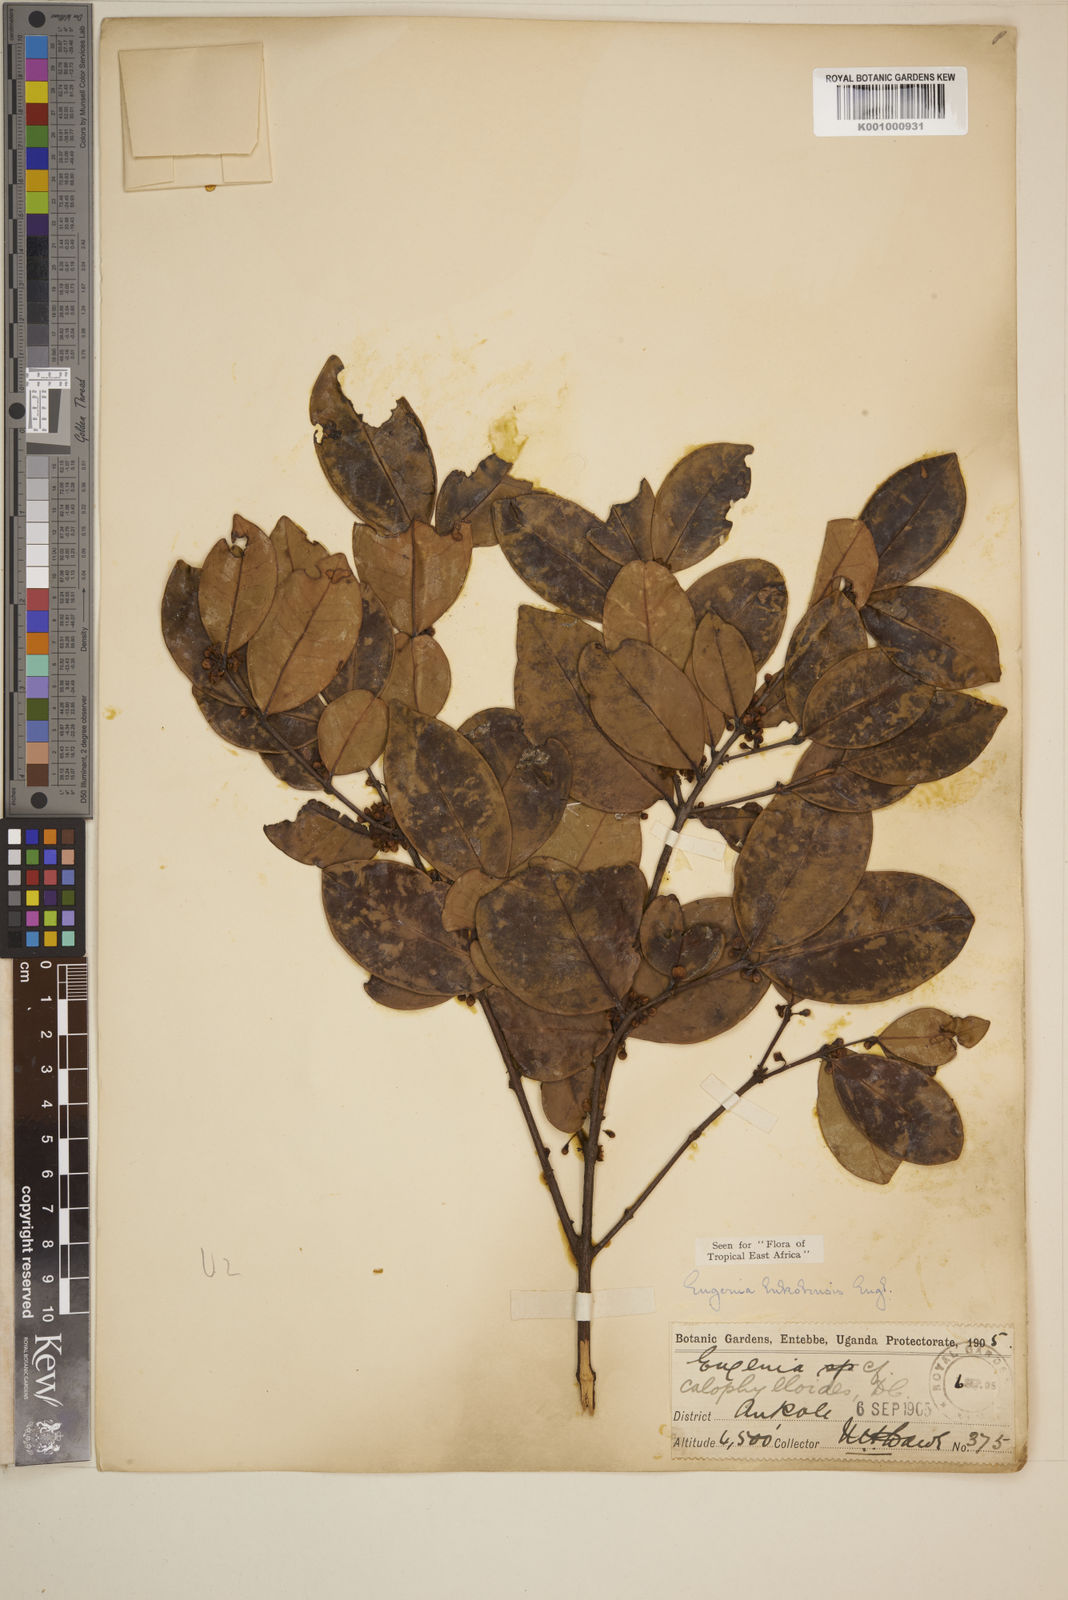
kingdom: Plantae
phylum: Tracheophyta
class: Magnoliopsida
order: Myrtales
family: Myrtaceae
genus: Eugenia
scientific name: Eugenia bukobensis
